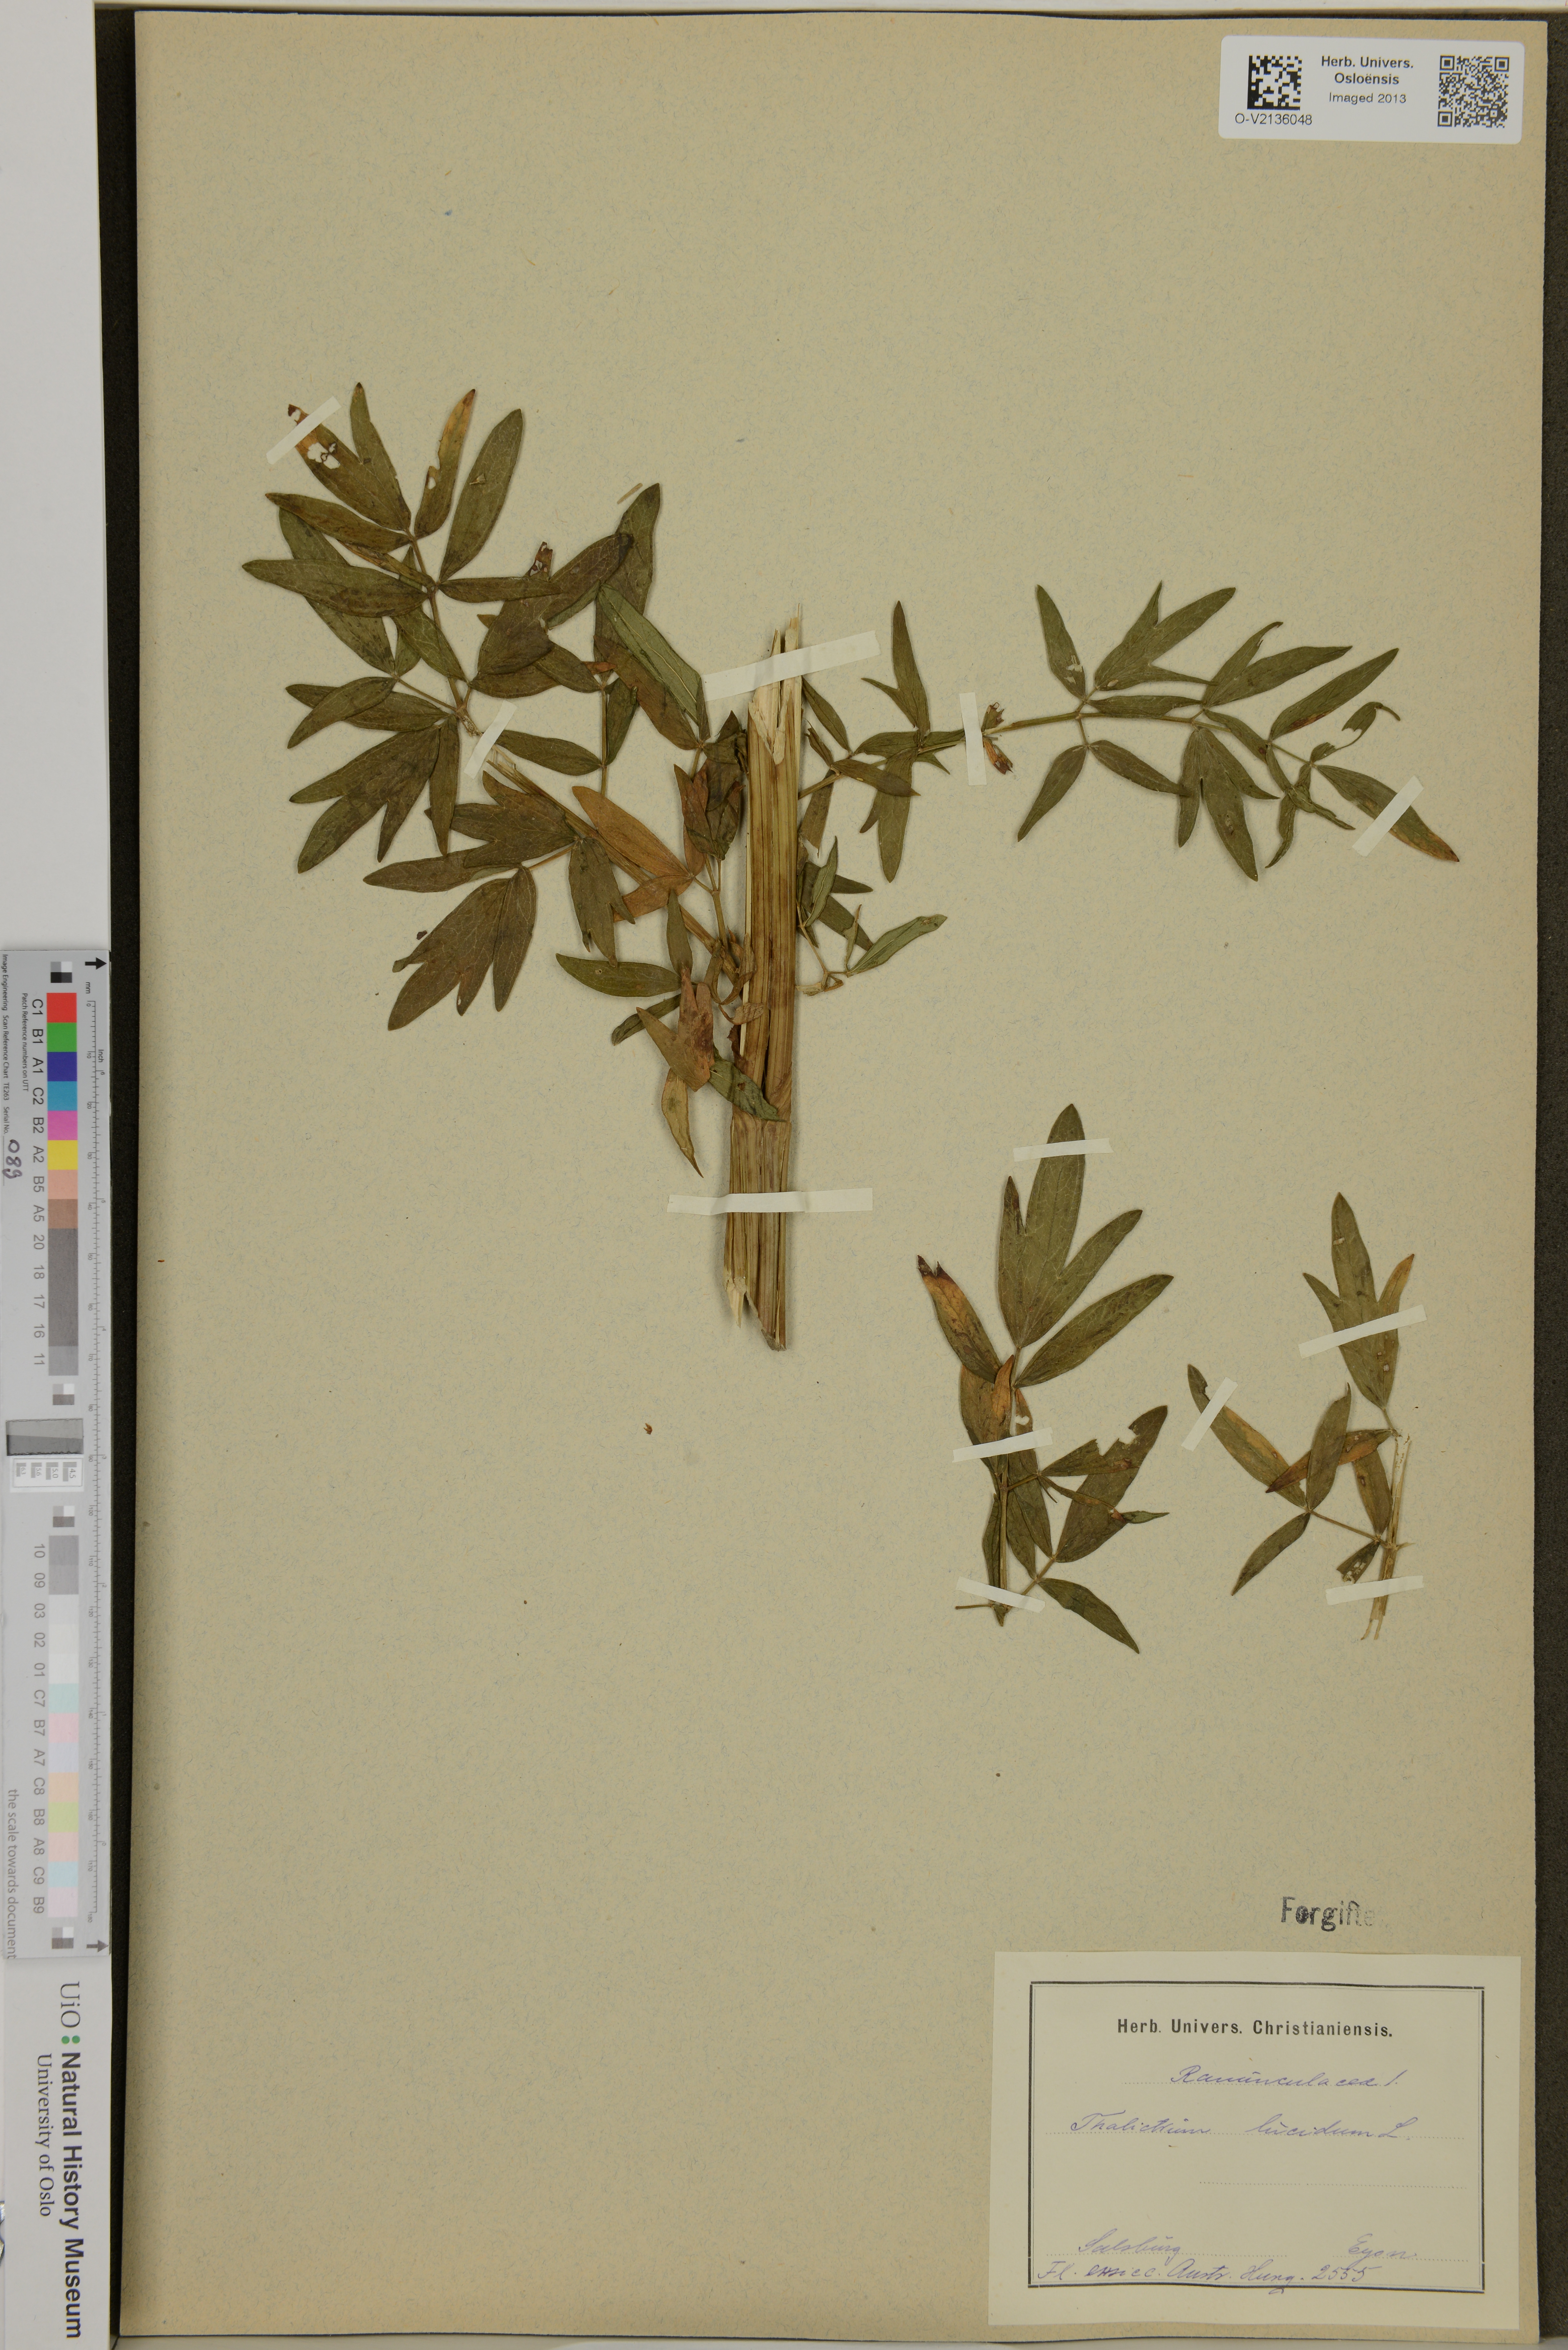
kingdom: Plantae
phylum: Tracheophyta
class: Magnoliopsida
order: Ranunculales
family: Ranunculaceae
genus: Thalictrum
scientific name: Thalictrum lucidum
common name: Shining meadow-rue
